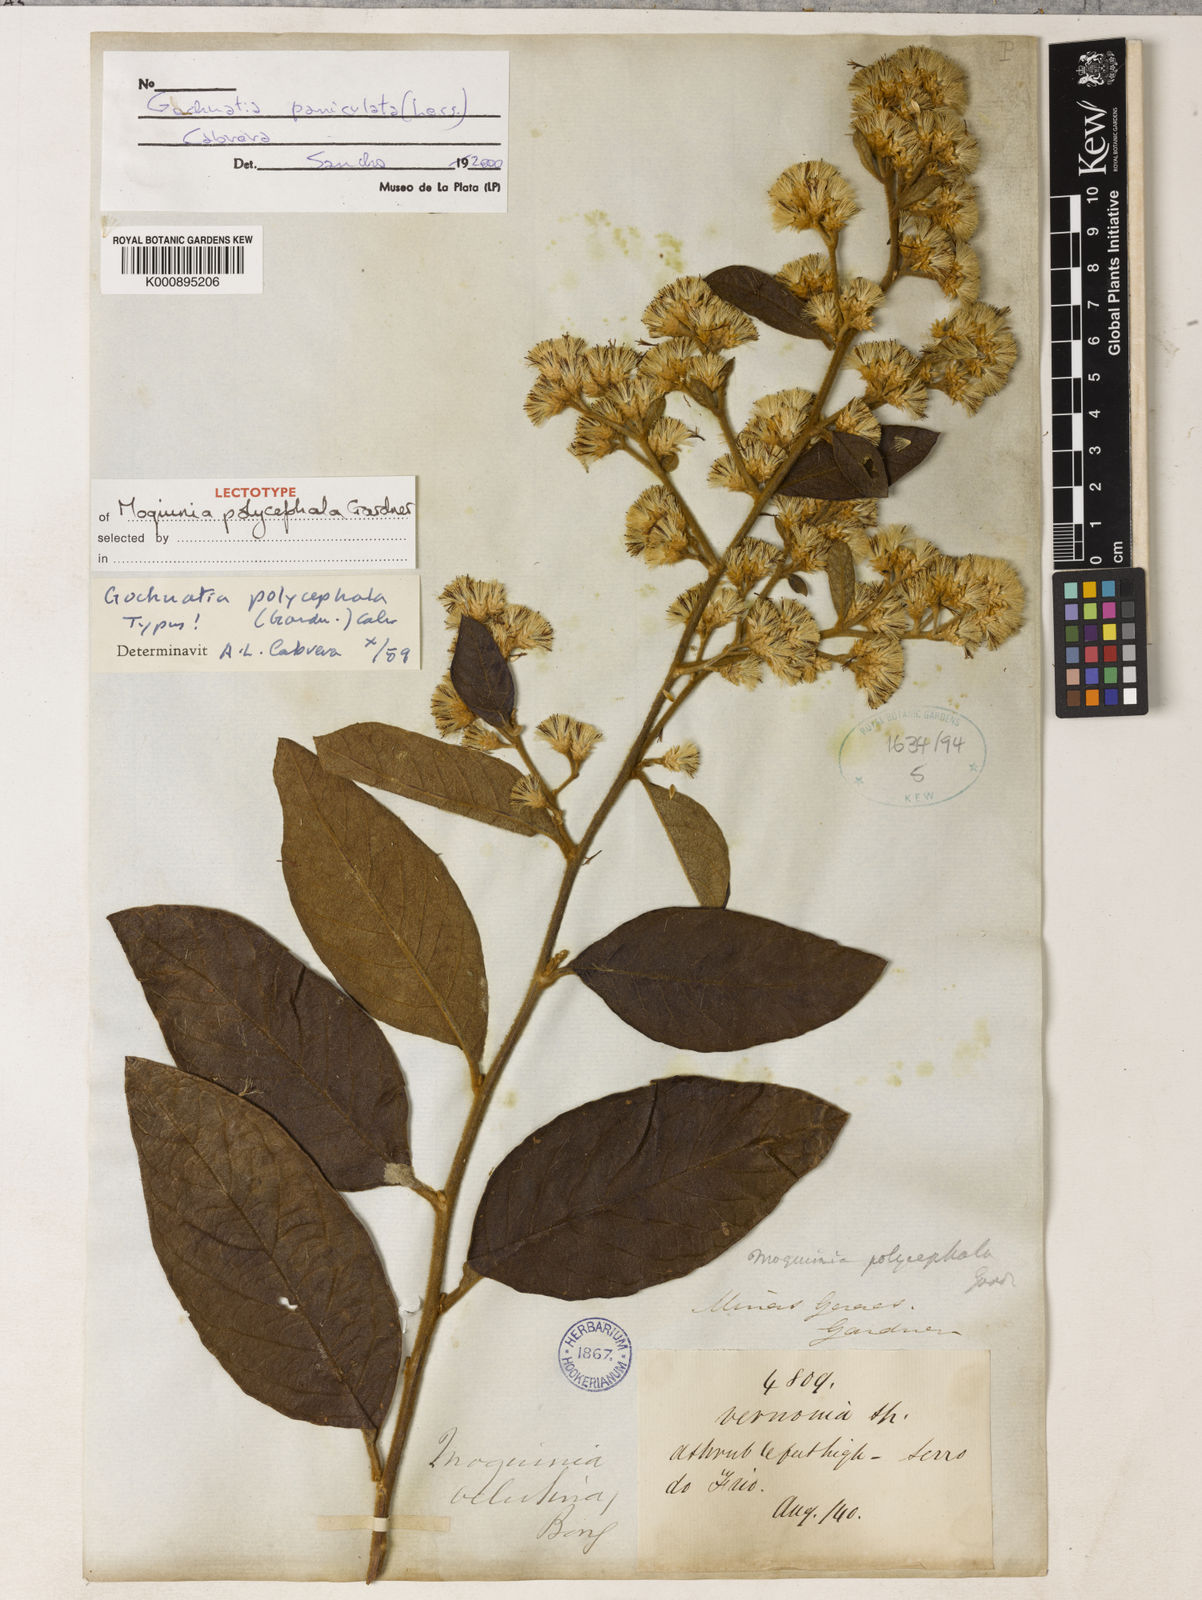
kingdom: Plantae
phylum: Tracheophyta
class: Magnoliopsida
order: Asterales
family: Asteraceae
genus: Moquiniastrum
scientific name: Moquiniastrum paniculatum
